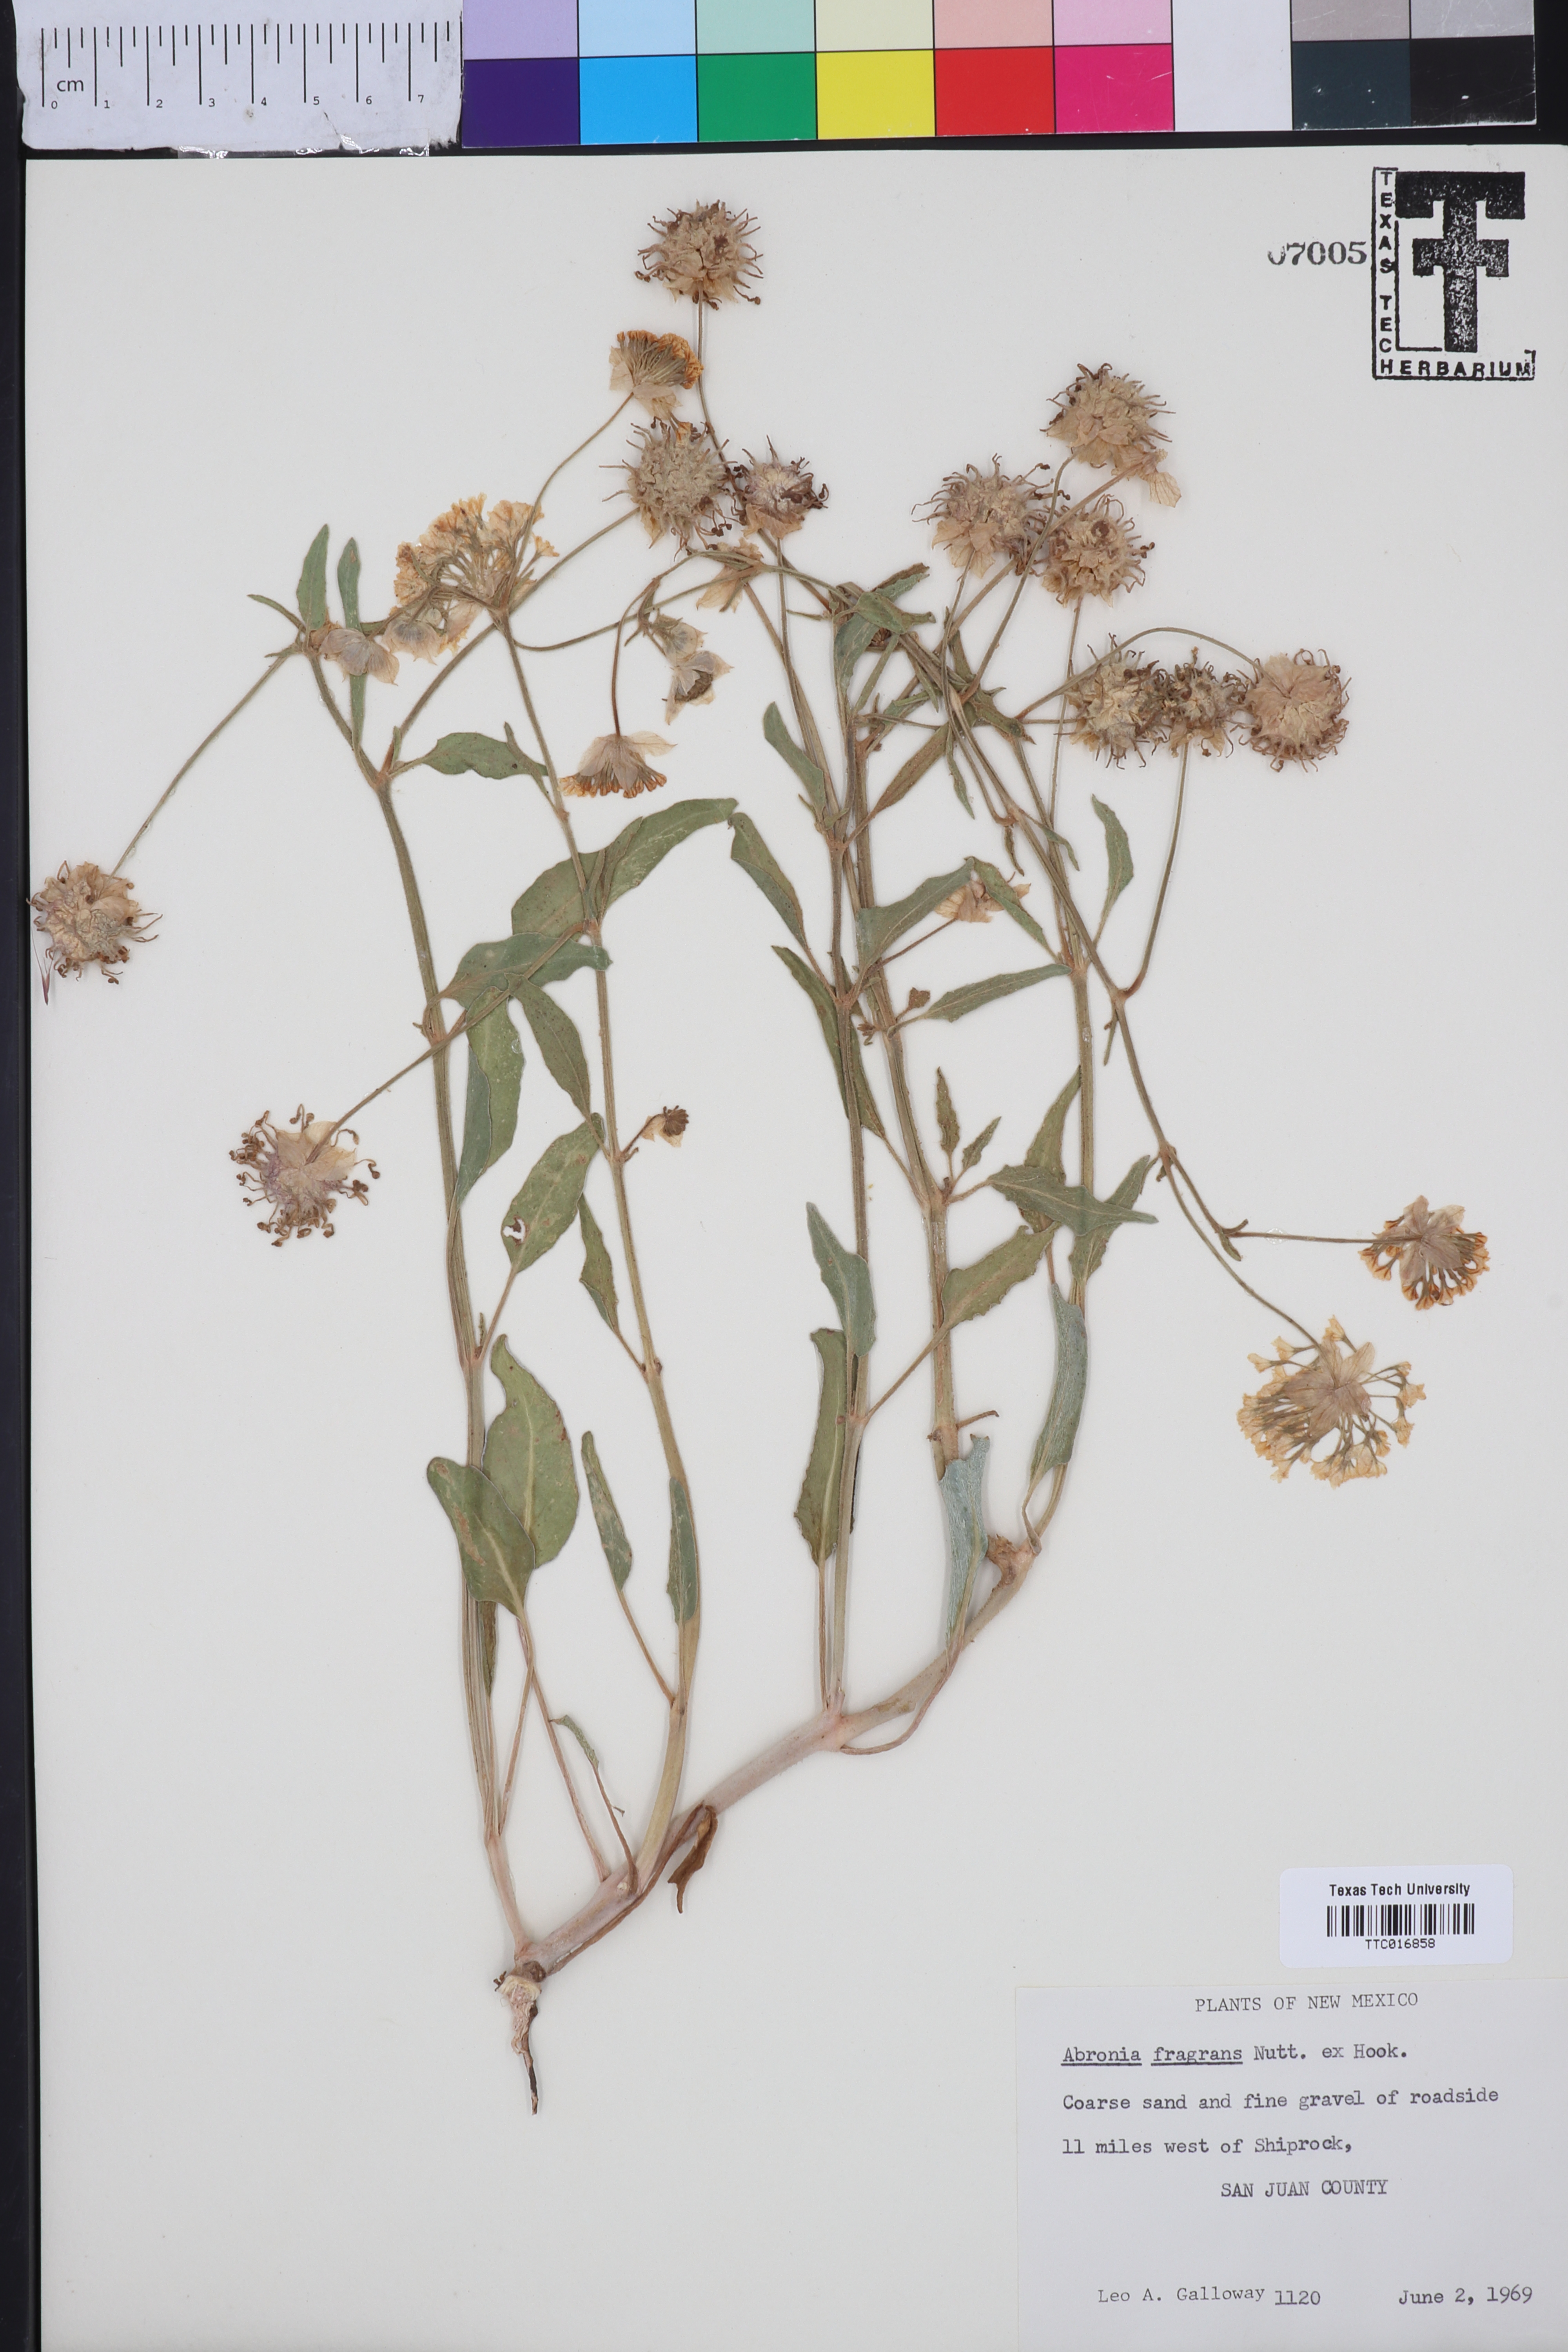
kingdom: Plantae
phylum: Tracheophyta
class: Magnoliopsida
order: Caryophyllales
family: Nyctaginaceae
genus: Abronia
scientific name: Abronia fragrans
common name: Fragrant sand-verbena
